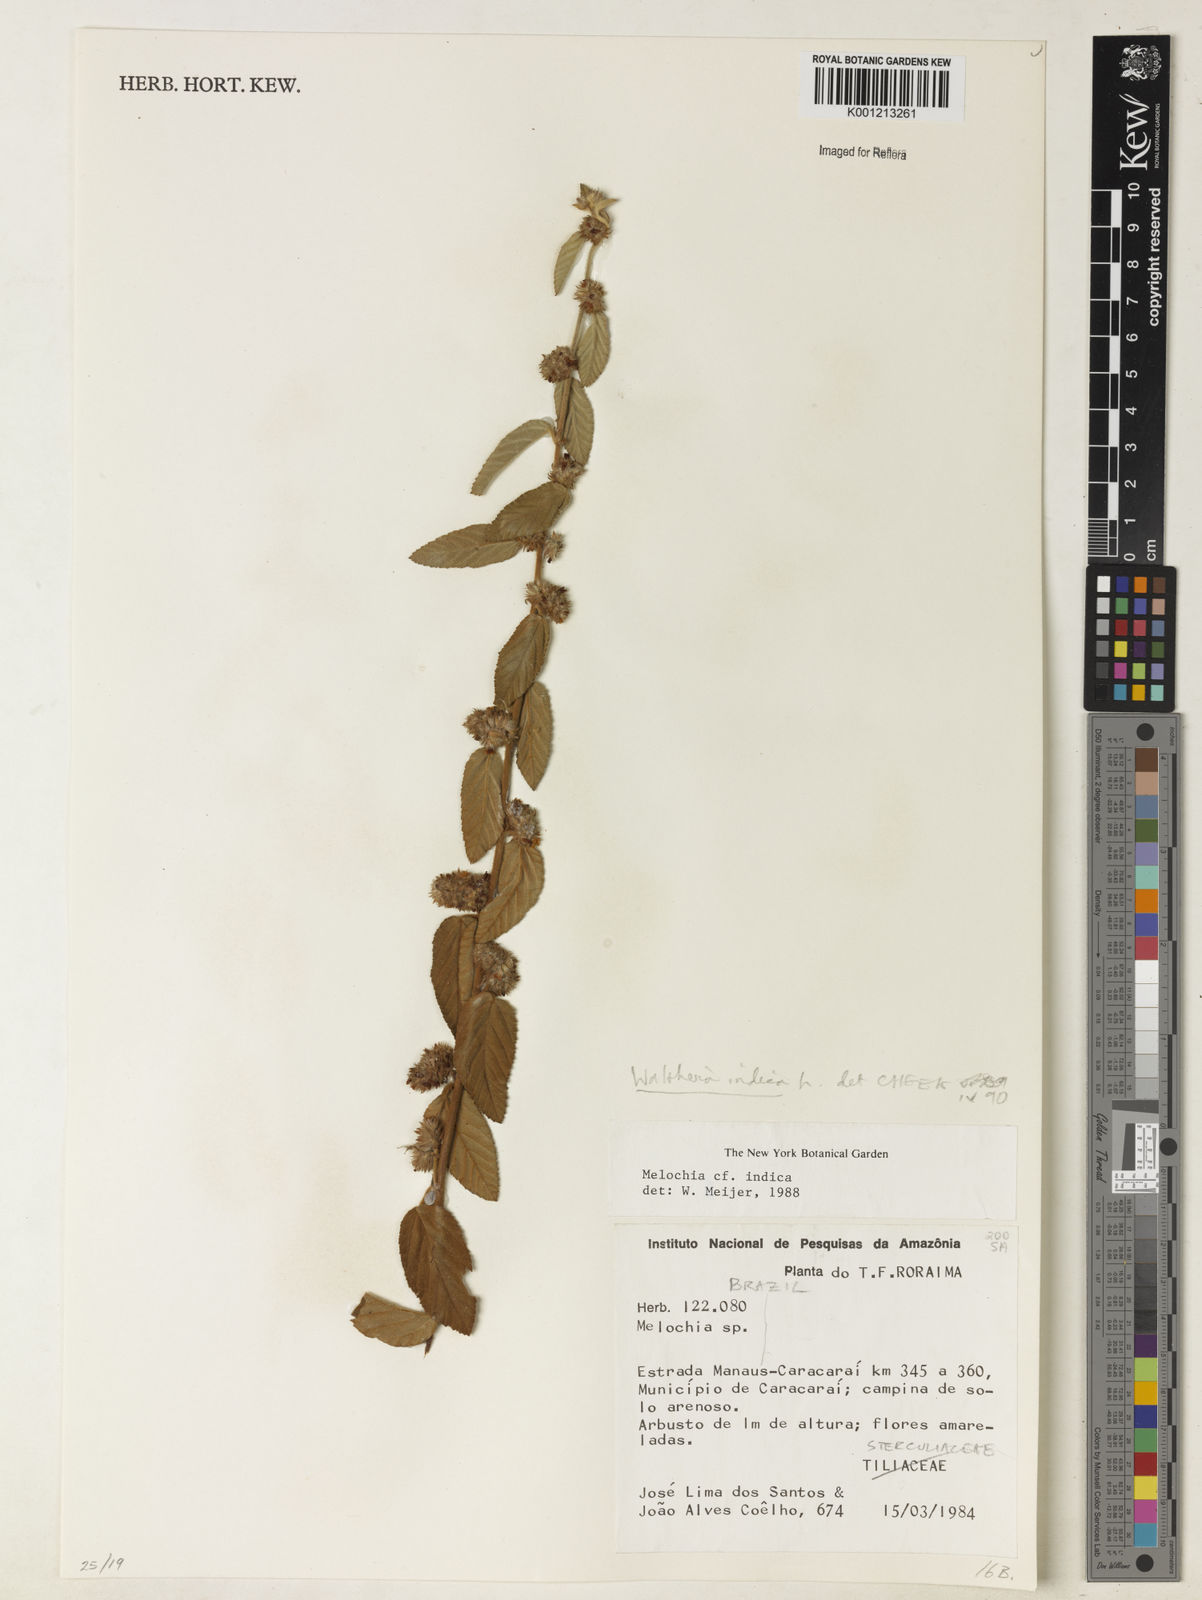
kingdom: Plantae
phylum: Tracheophyta
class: Magnoliopsida
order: Malvales
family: Malvaceae
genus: Waltheria
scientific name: Waltheria indica
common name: Leather-coat
